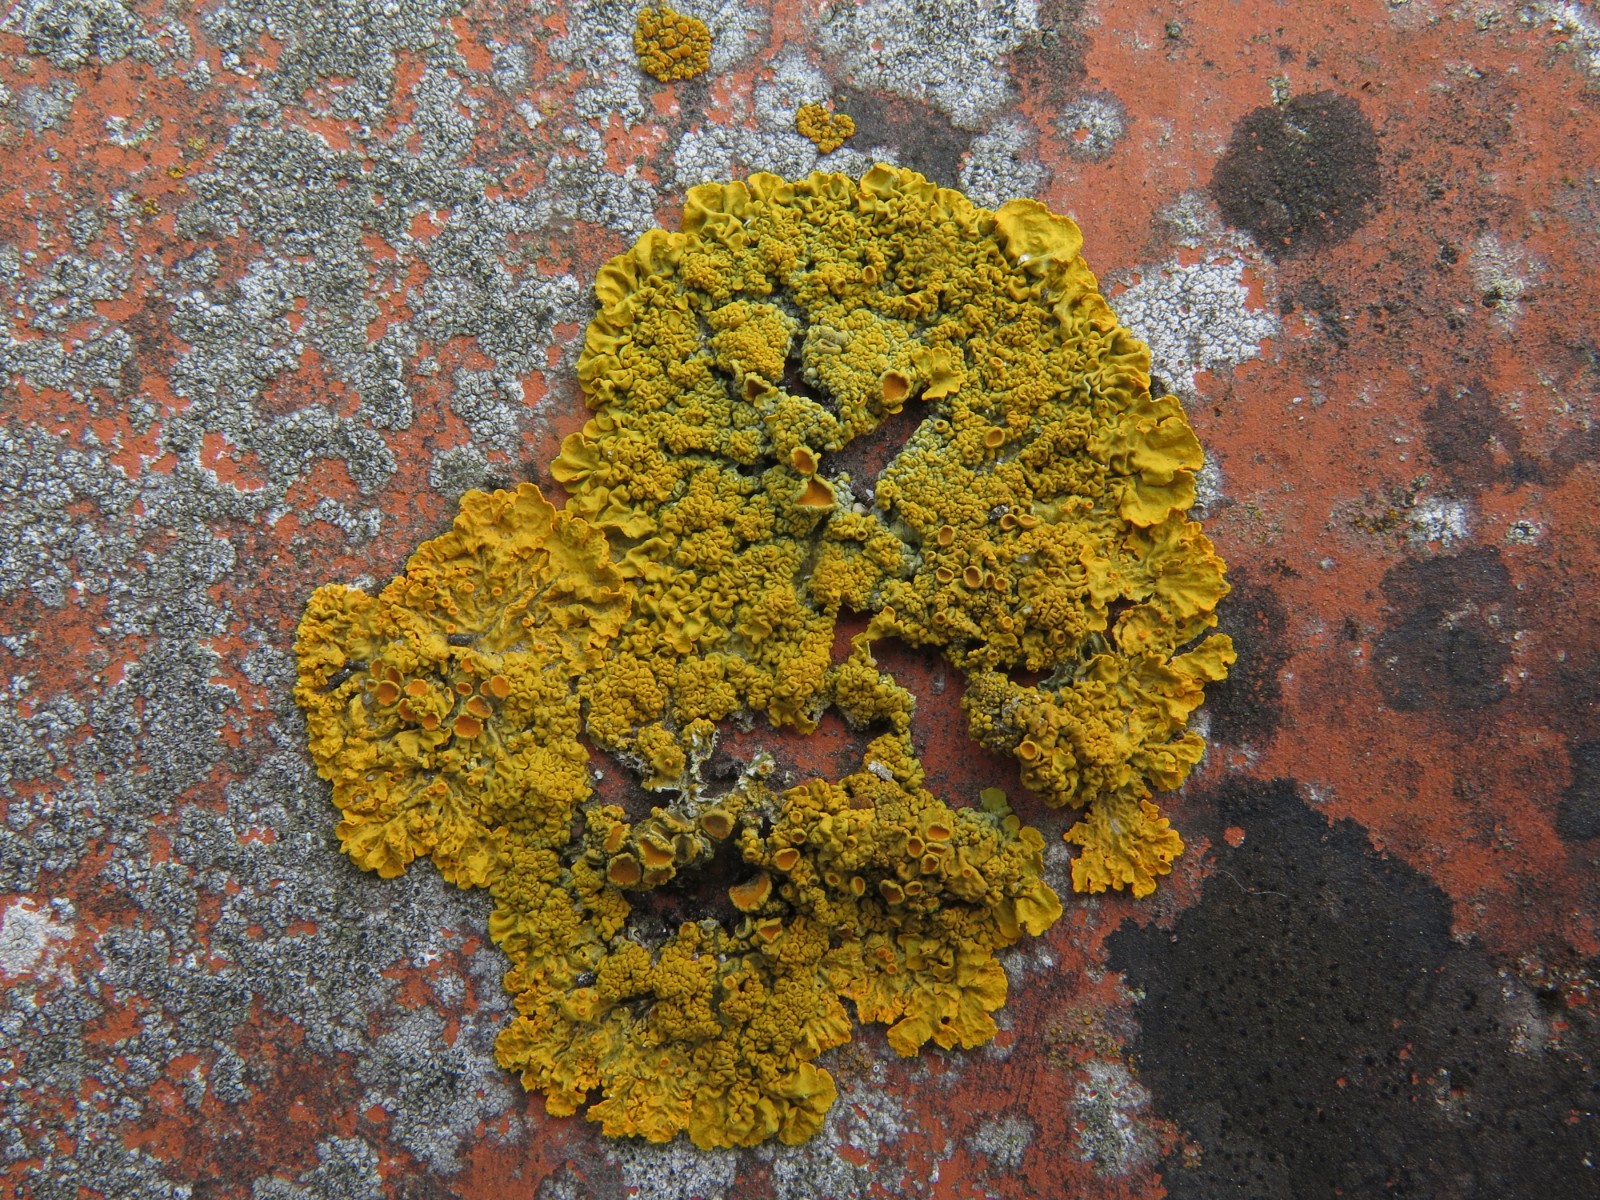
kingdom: Fungi
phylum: Ascomycota
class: Lecanoromycetes
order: Teloschistales
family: Teloschistaceae
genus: Xanthoria
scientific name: Xanthoria calcicola
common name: vortet væggelav
